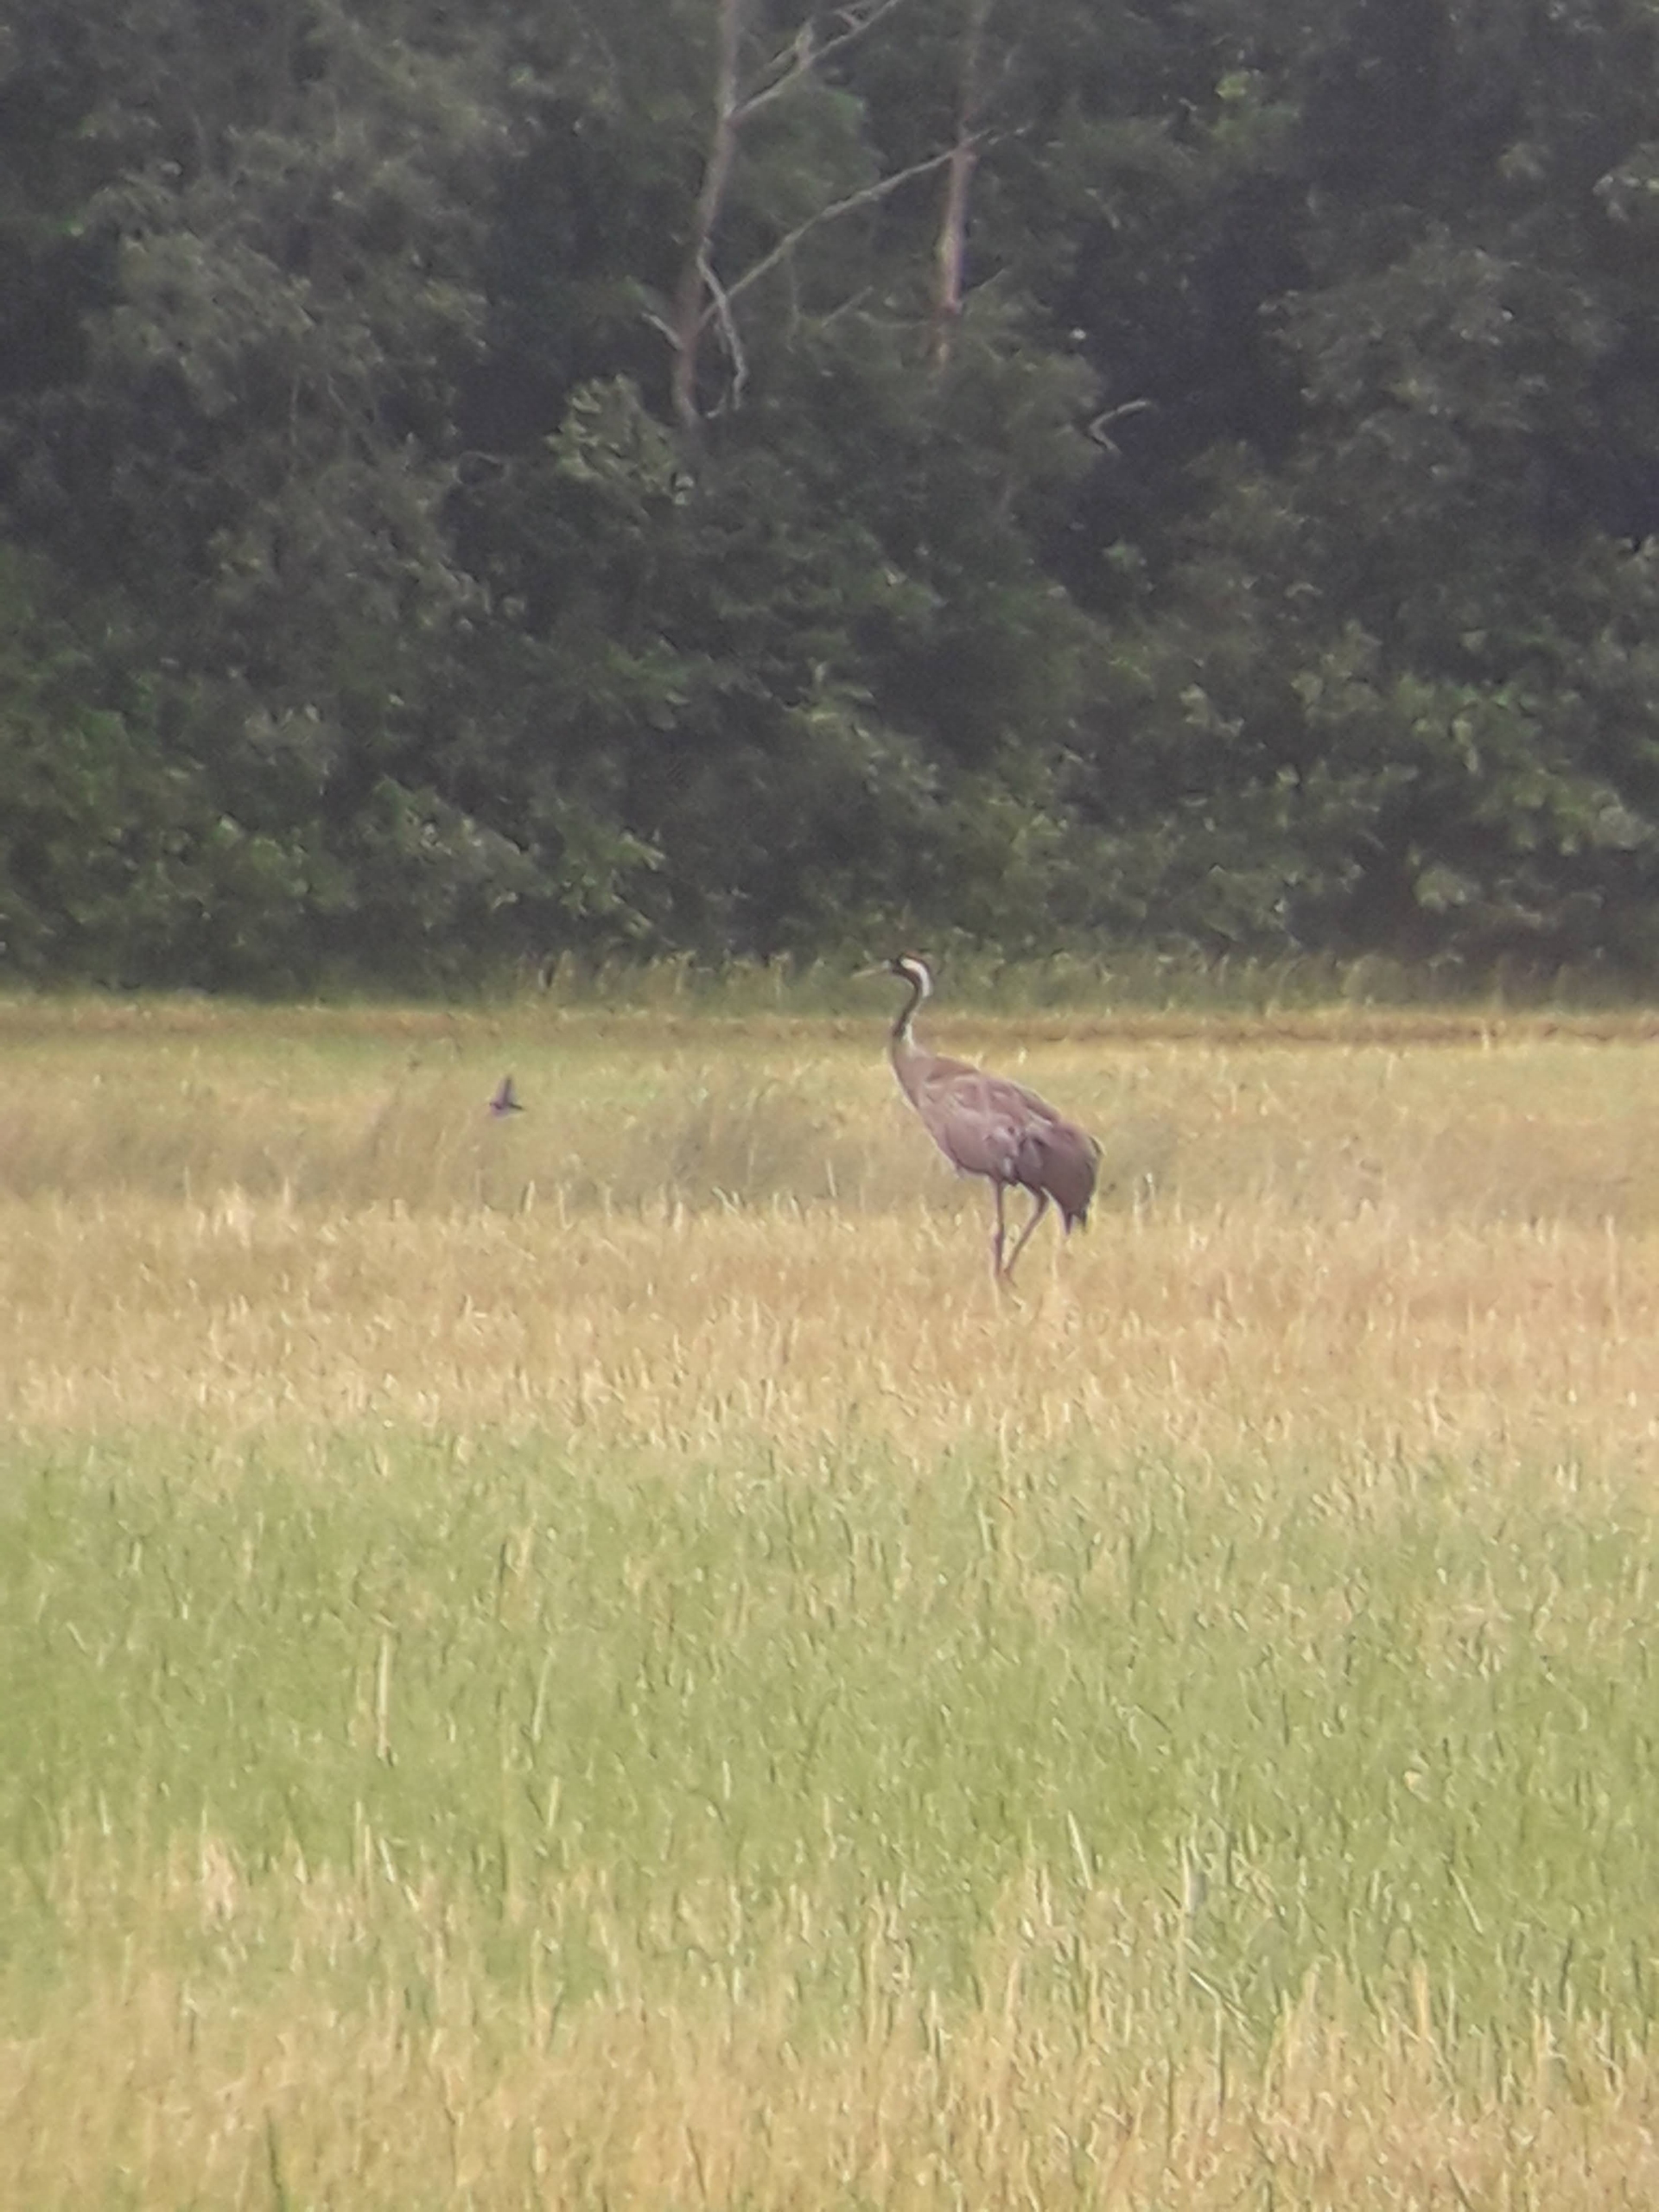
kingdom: Animalia
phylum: Chordata
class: Aves
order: Gruiformes
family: Gruidae
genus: Grus
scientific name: Grus grus
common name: Trane
